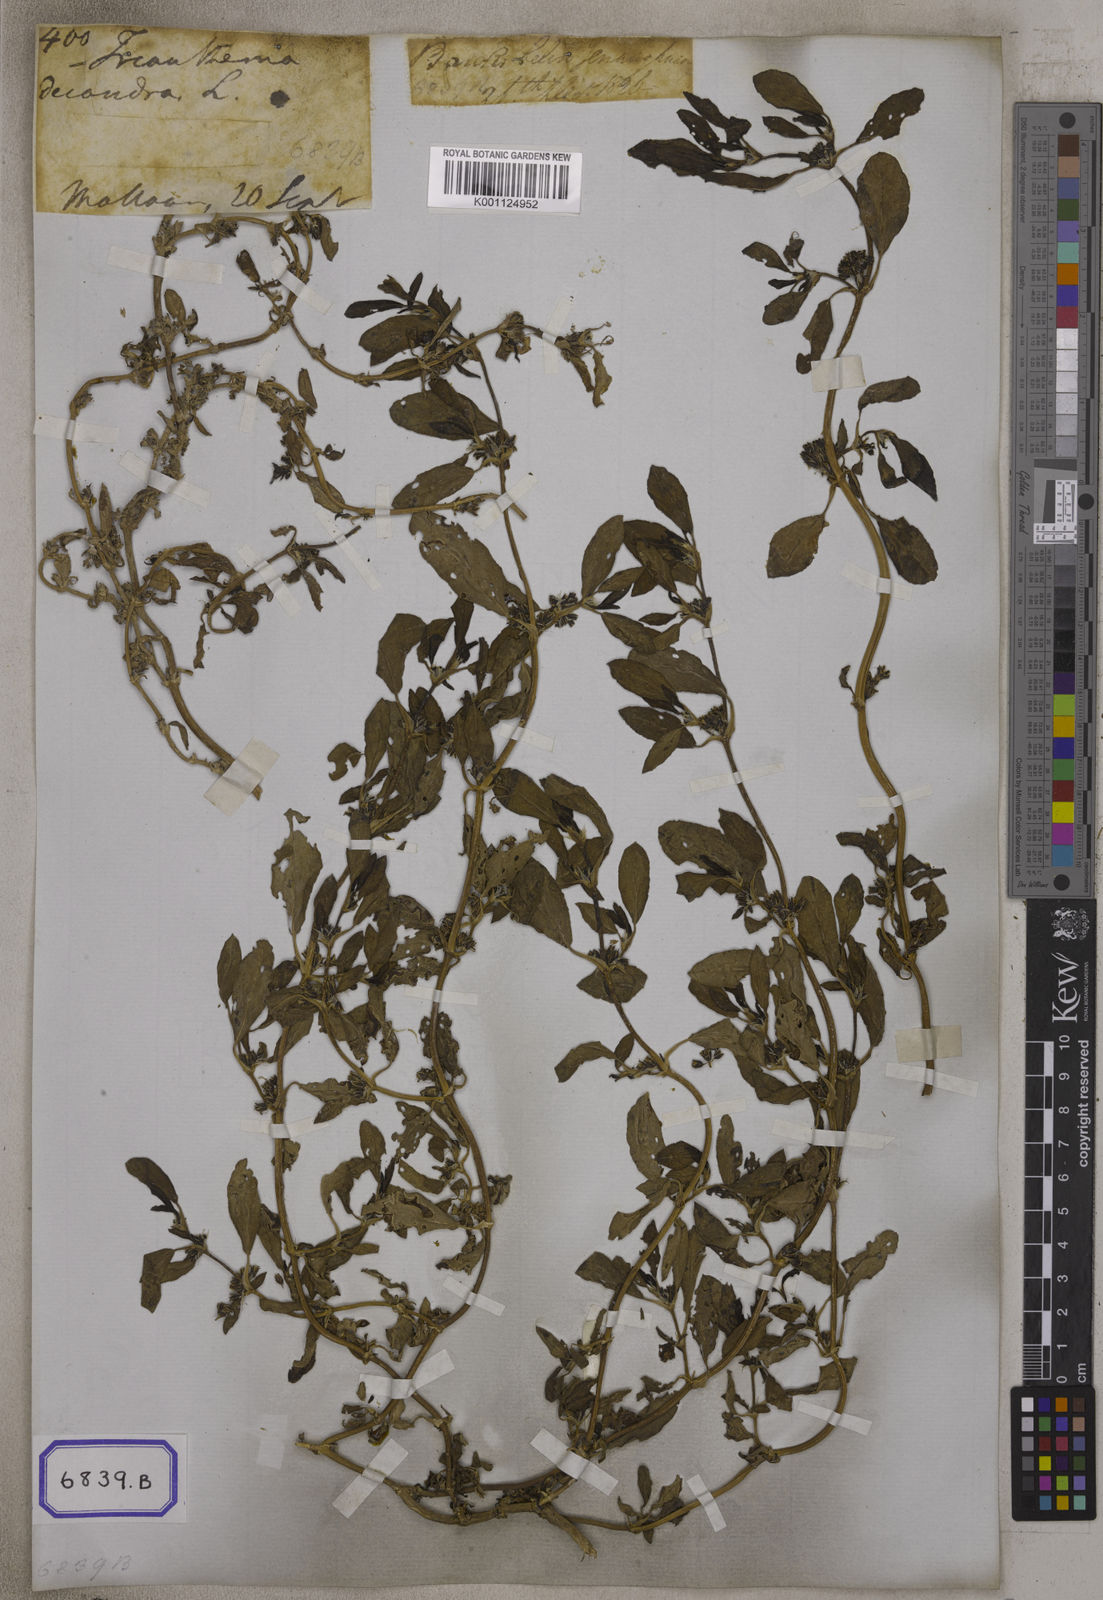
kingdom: Plantae
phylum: Tracheophyta
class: Magnoliopsida
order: Caryophyllales
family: Aizoaceae
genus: Zaleya
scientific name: Zaleya decandra
